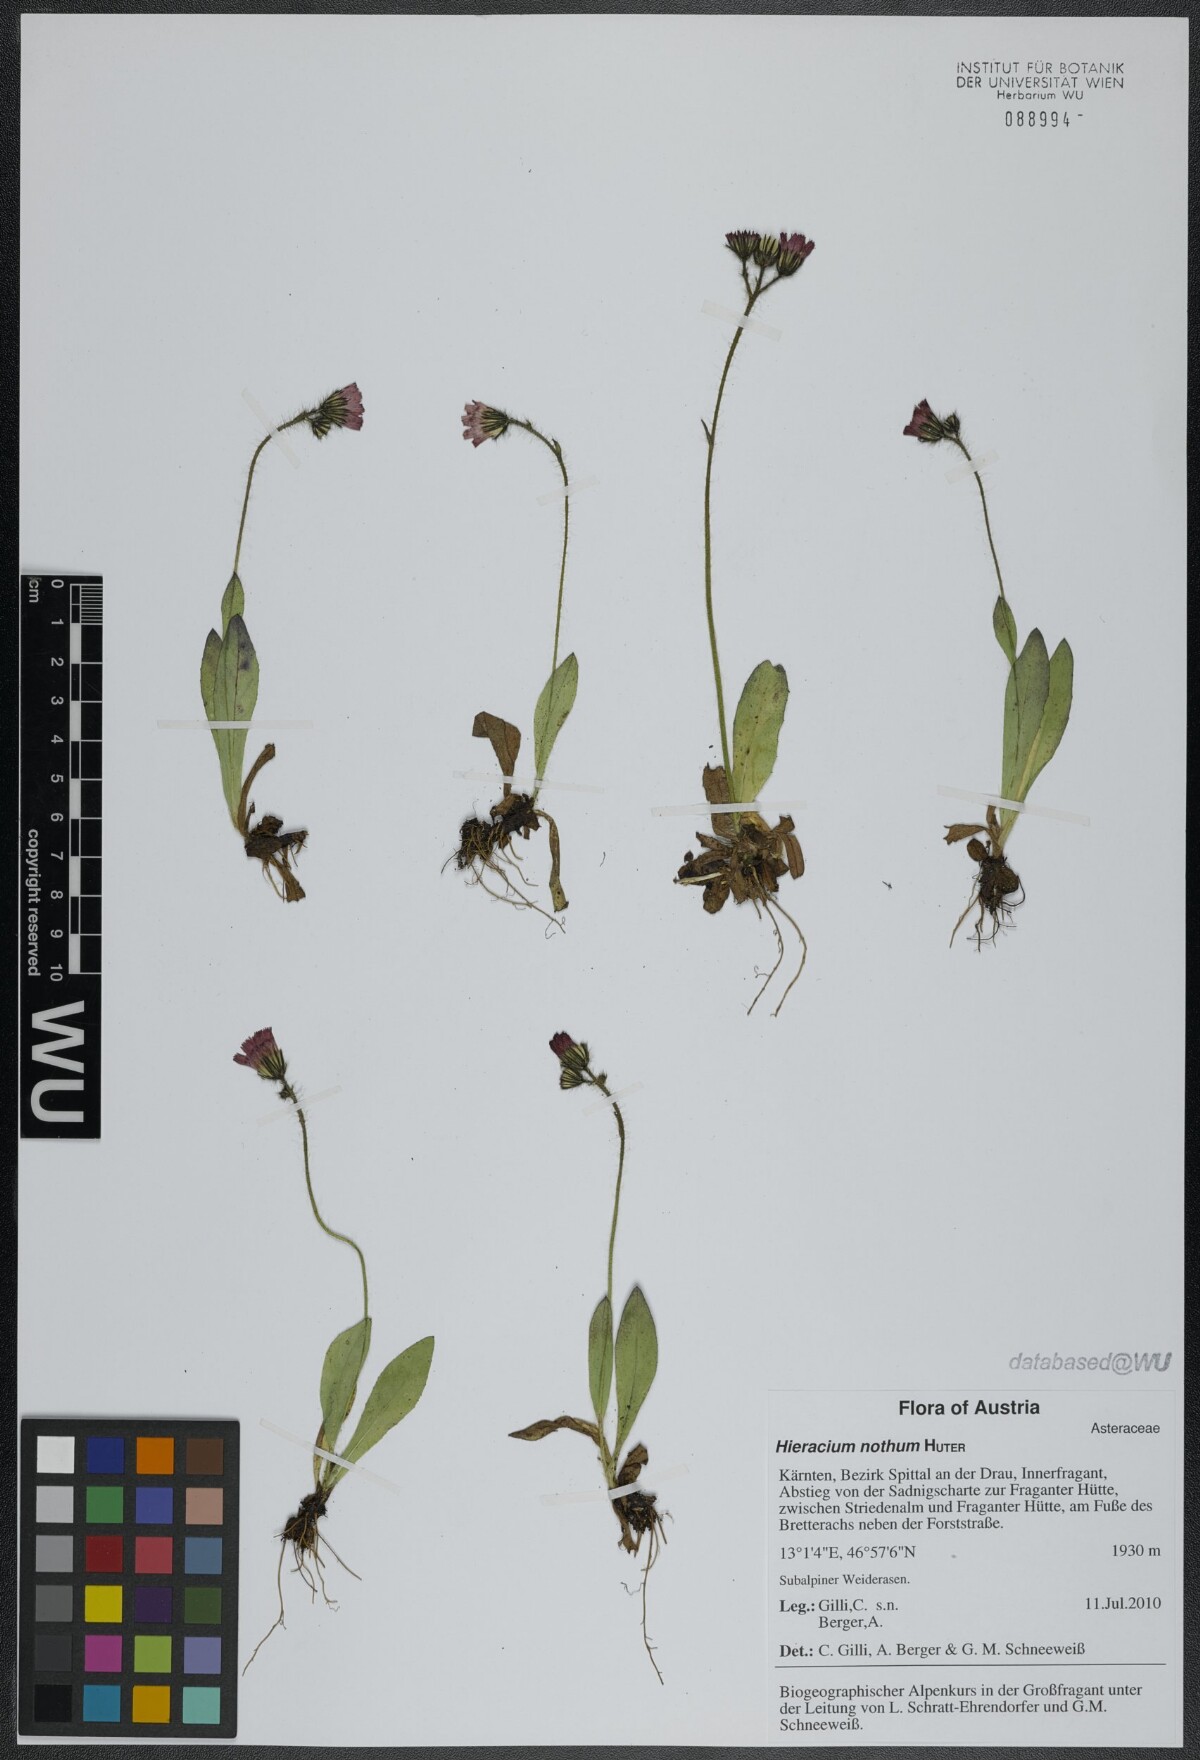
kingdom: Plantae
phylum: Tracheophyta
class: Magnoliopsida
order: Asterales
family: Asteraceae
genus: Pilosella
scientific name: Pilosella notha
